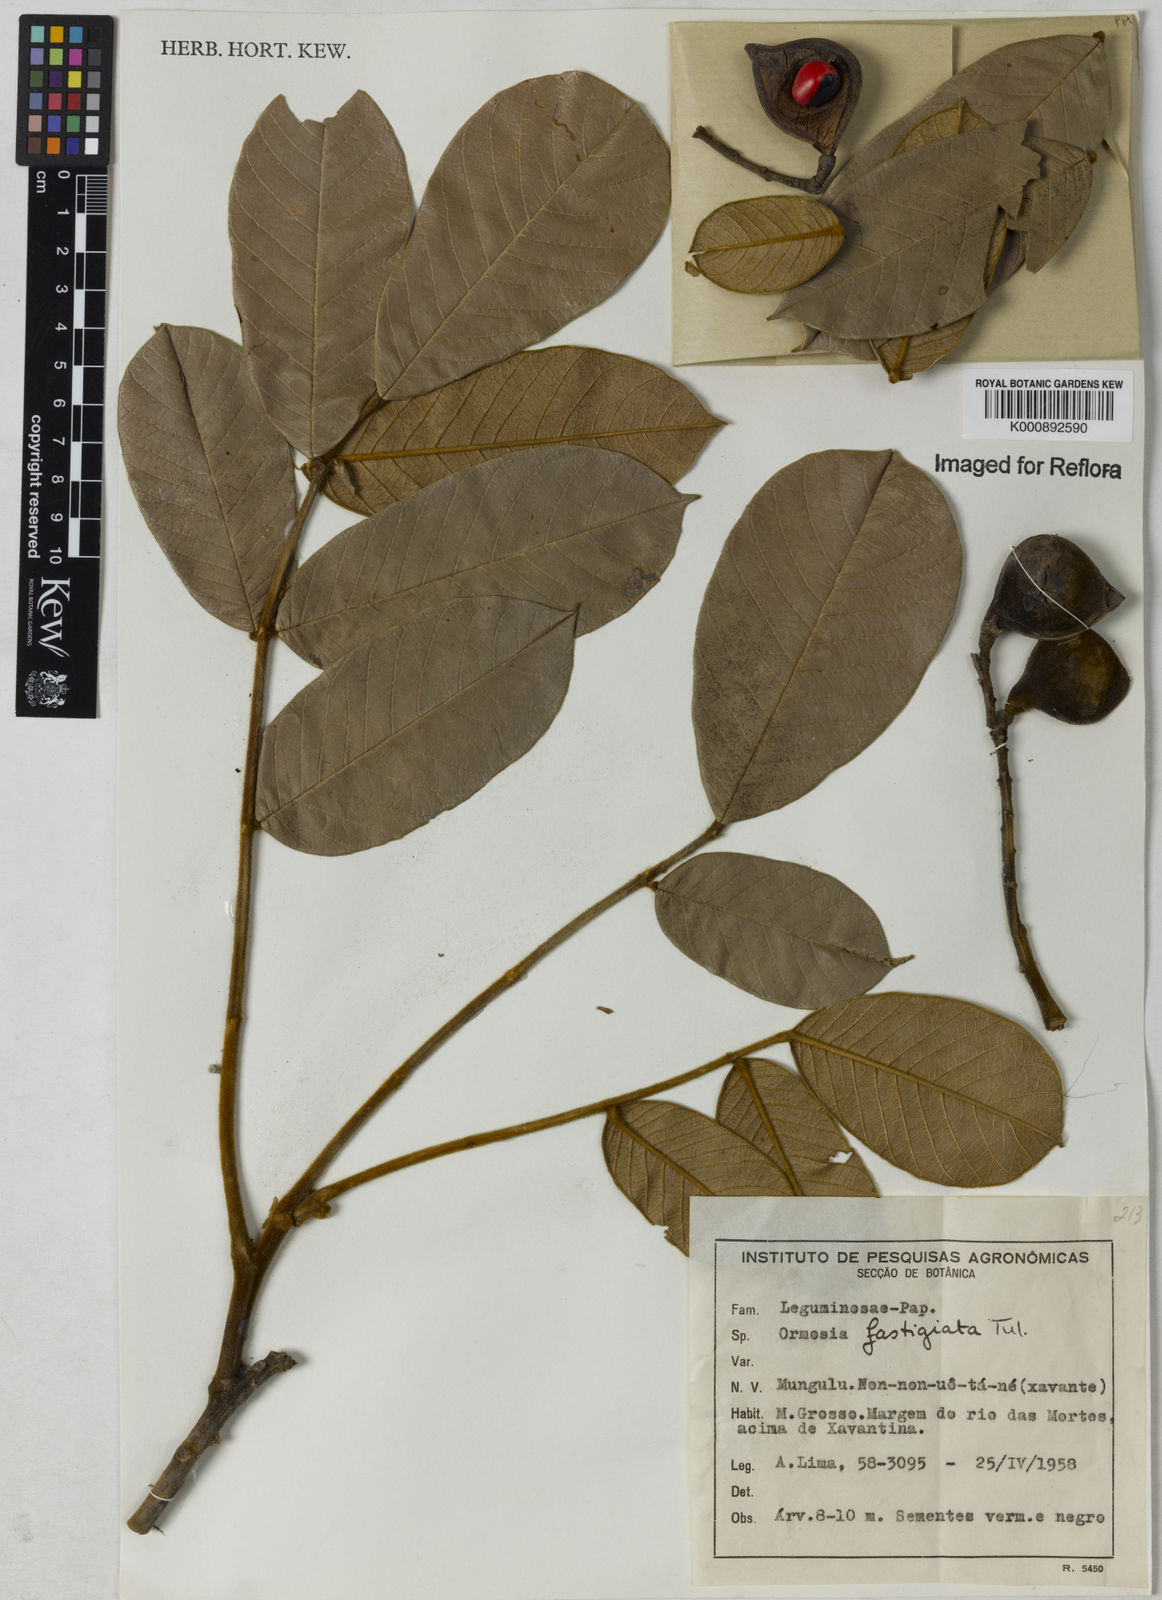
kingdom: Plantae
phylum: Tracheophyta
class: Magnoliopsida
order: Fabales
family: Fabaceae
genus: Ormosia
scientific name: Ormosia coarctata
